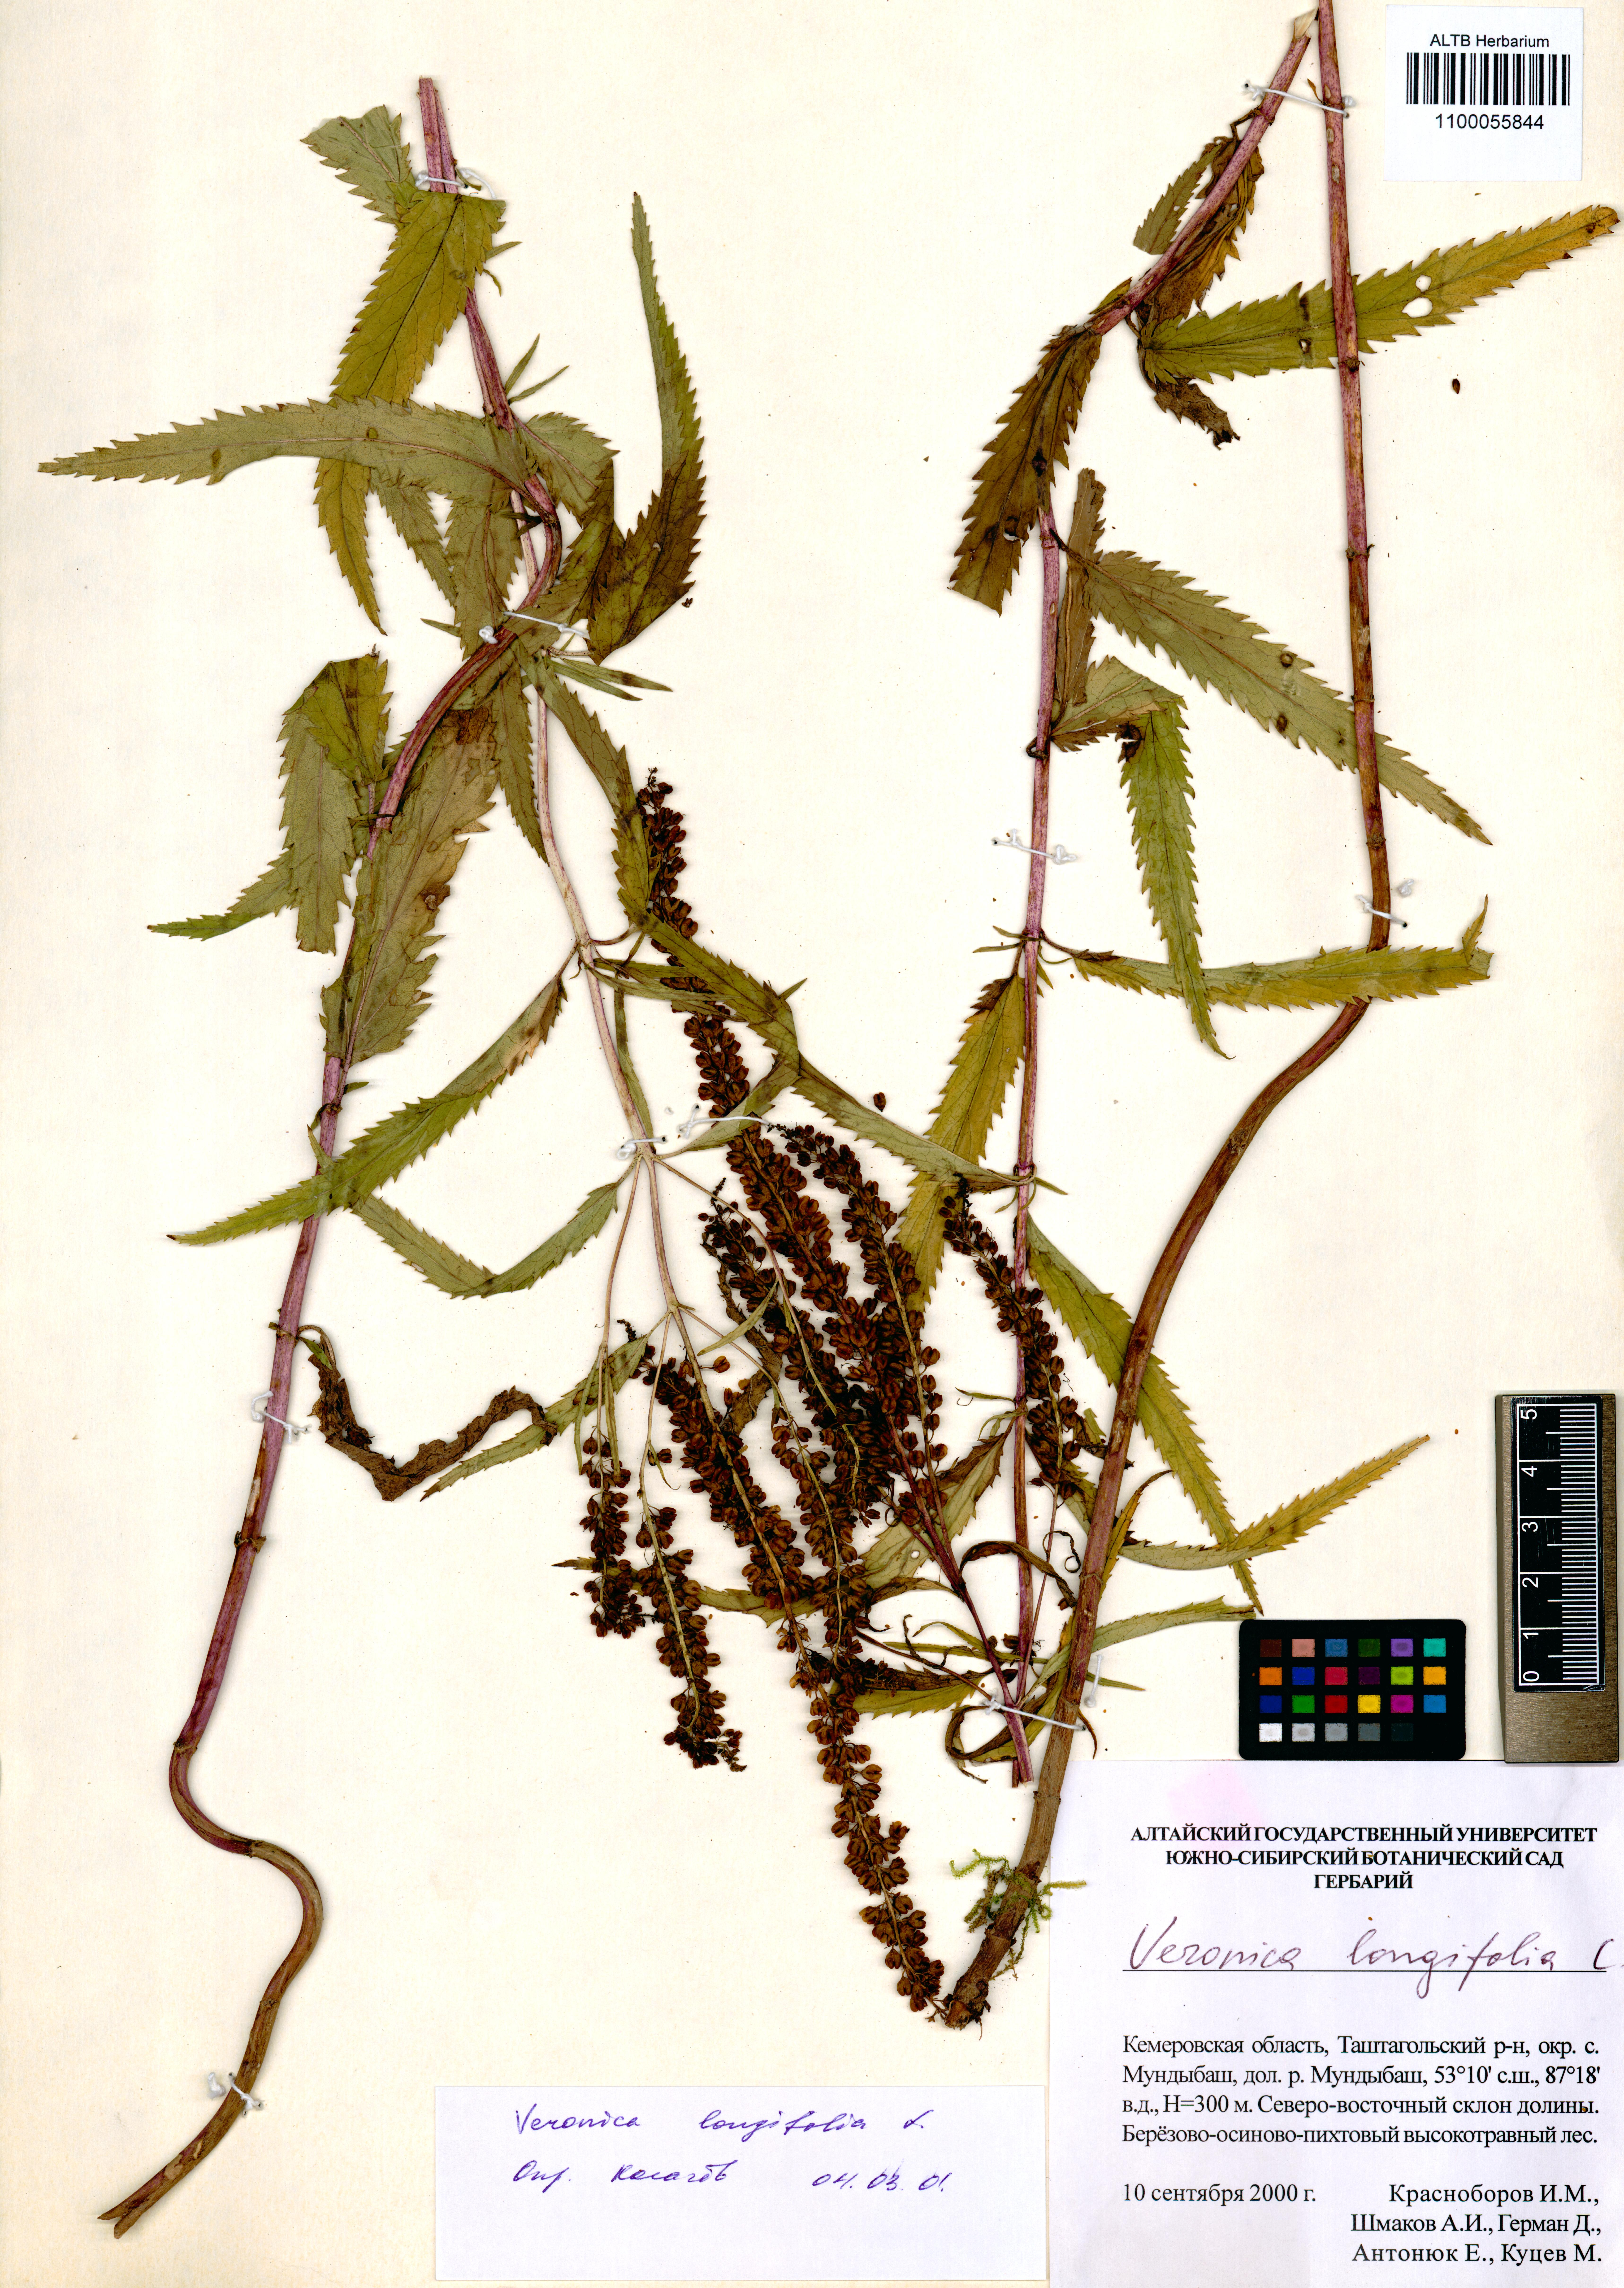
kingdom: Plantae
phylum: Tracheophyta
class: Magnoliopsida
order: Lamiales
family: Plantaginaceae
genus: Veronica
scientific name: Veronica longifolia
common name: Garden speedwell
